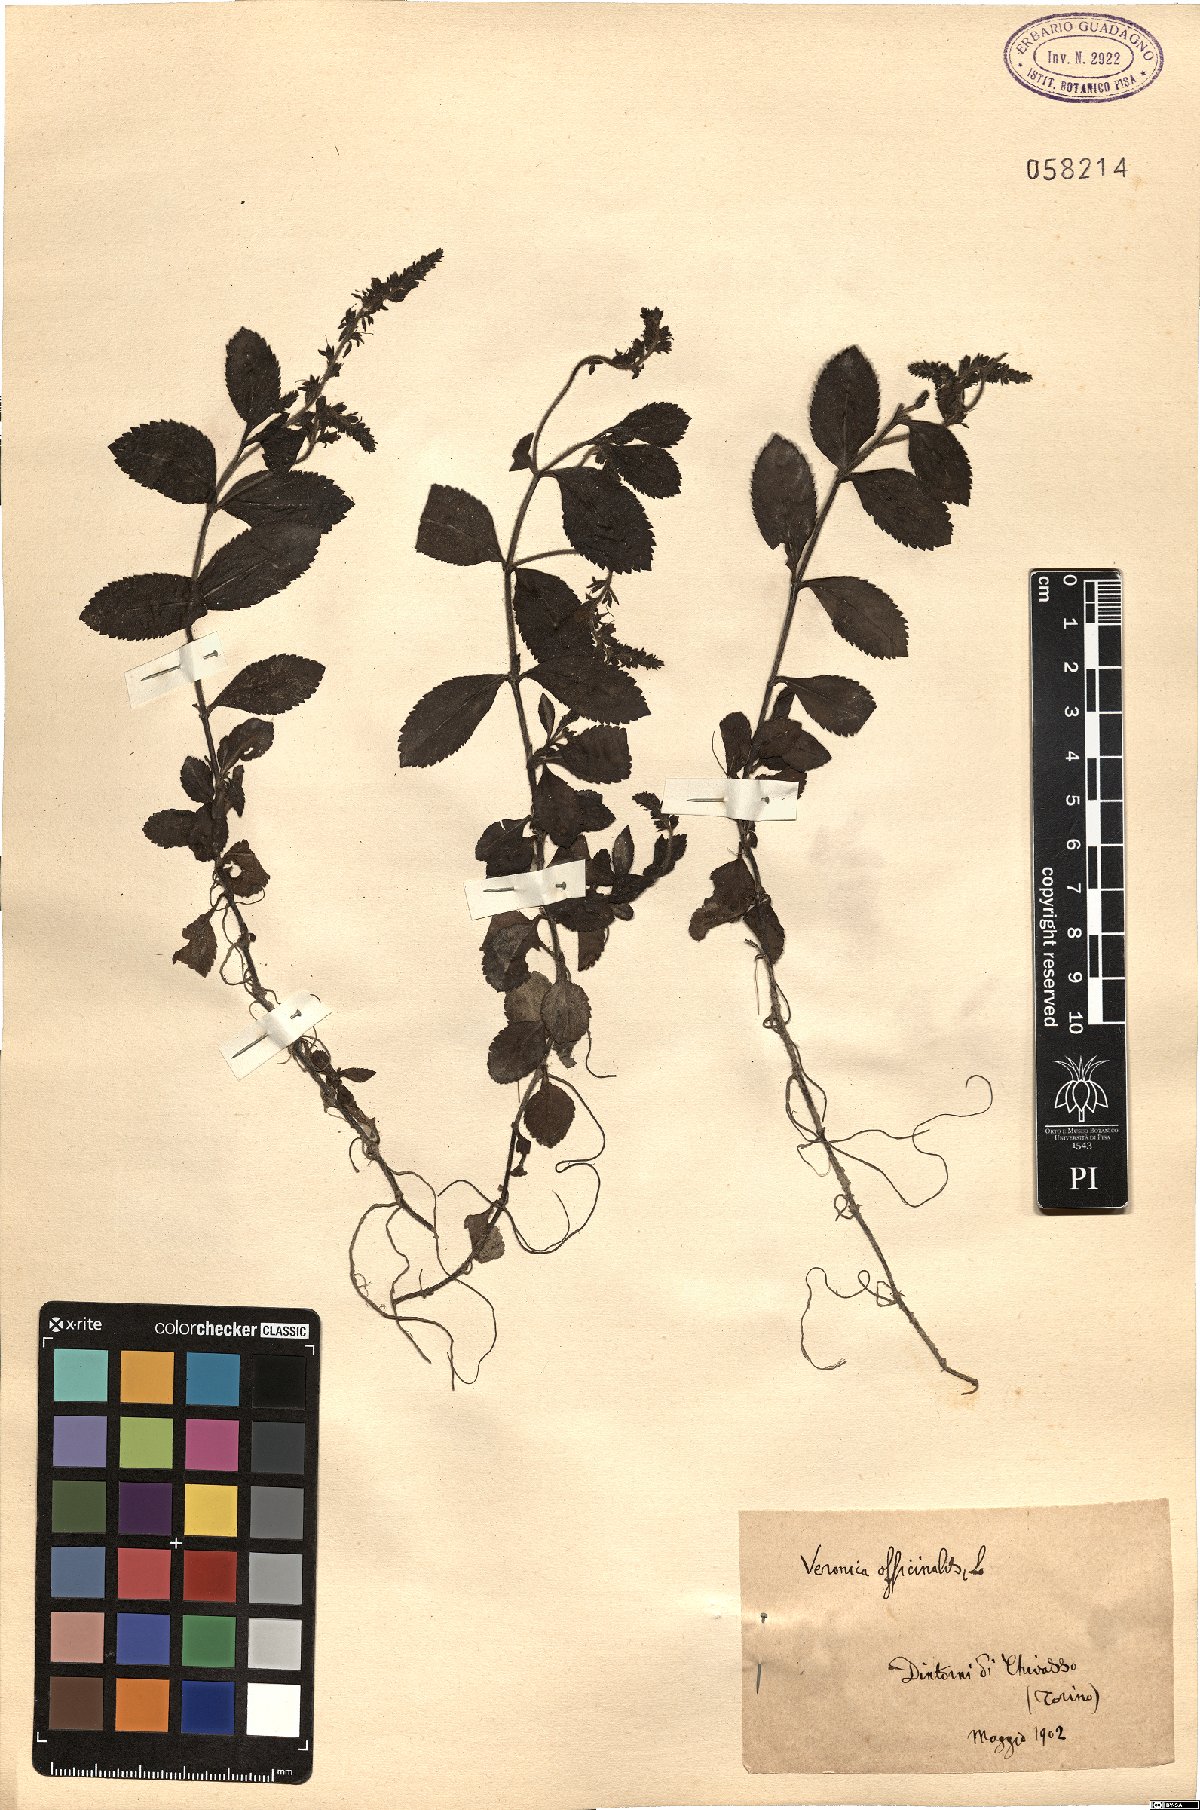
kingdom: Plantae
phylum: Tracheophyta
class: Magnoliopsida
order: Lamiales
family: Plantaginaceae
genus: Veronica
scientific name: Veronica officinalis
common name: Common speedwell
